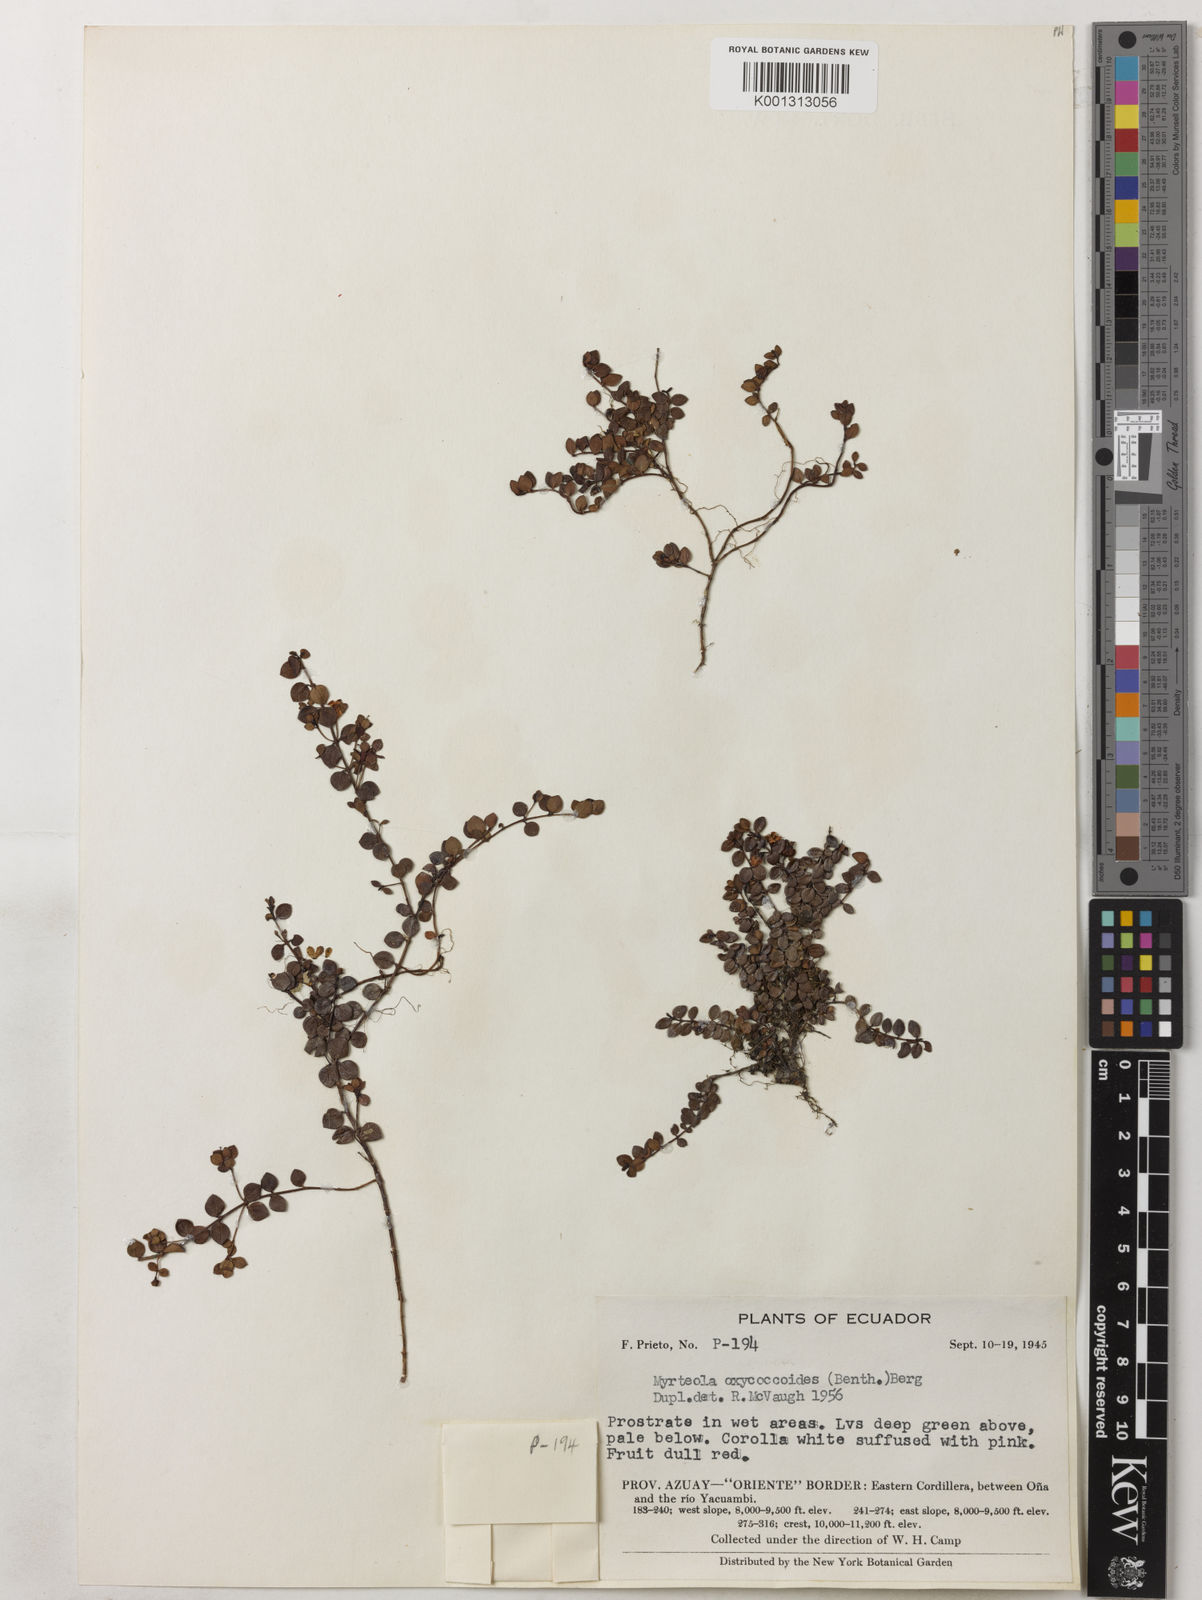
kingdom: Plantae
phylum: Tracheophyta
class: Magnoliopsida
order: Myrtales
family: Myrtaceae
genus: Myrteola
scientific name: Myrteola nummularia
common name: Cranberry-myrtle
